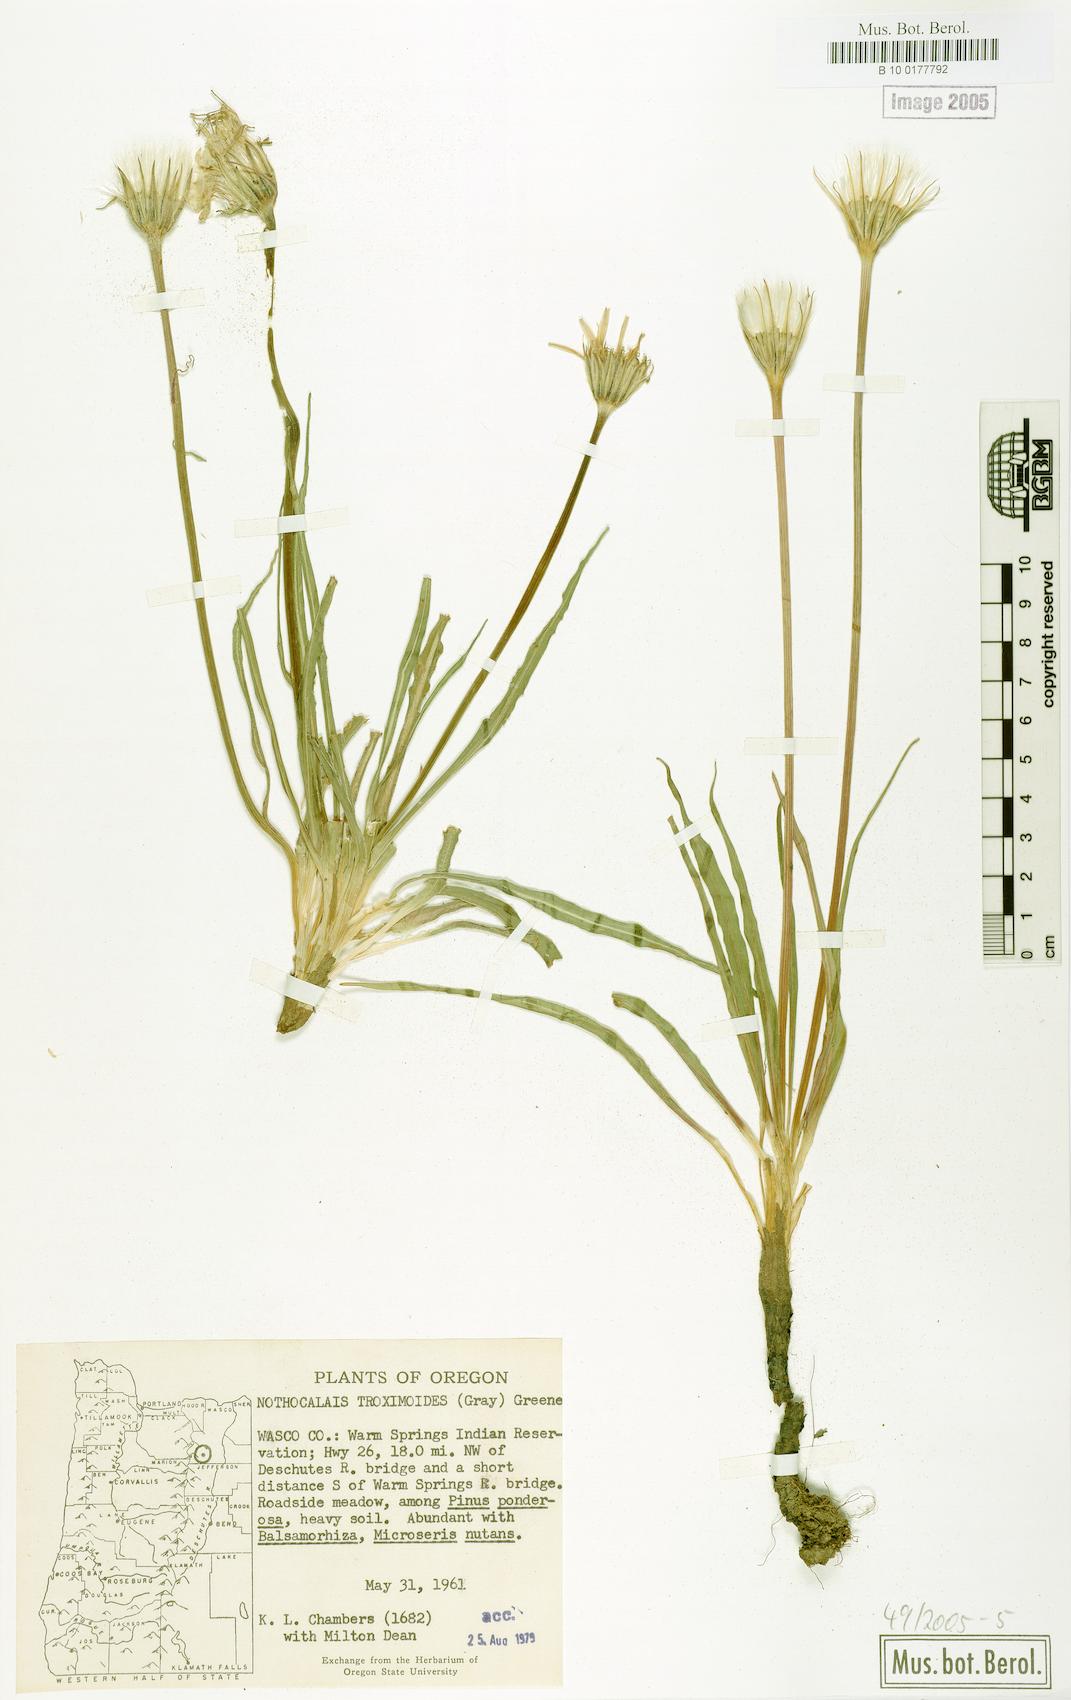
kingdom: Plantae
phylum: Tracheophyta
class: Magnoliopsida
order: Asterales
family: Asteraceae
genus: Microseris
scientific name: Microseris troximoides
